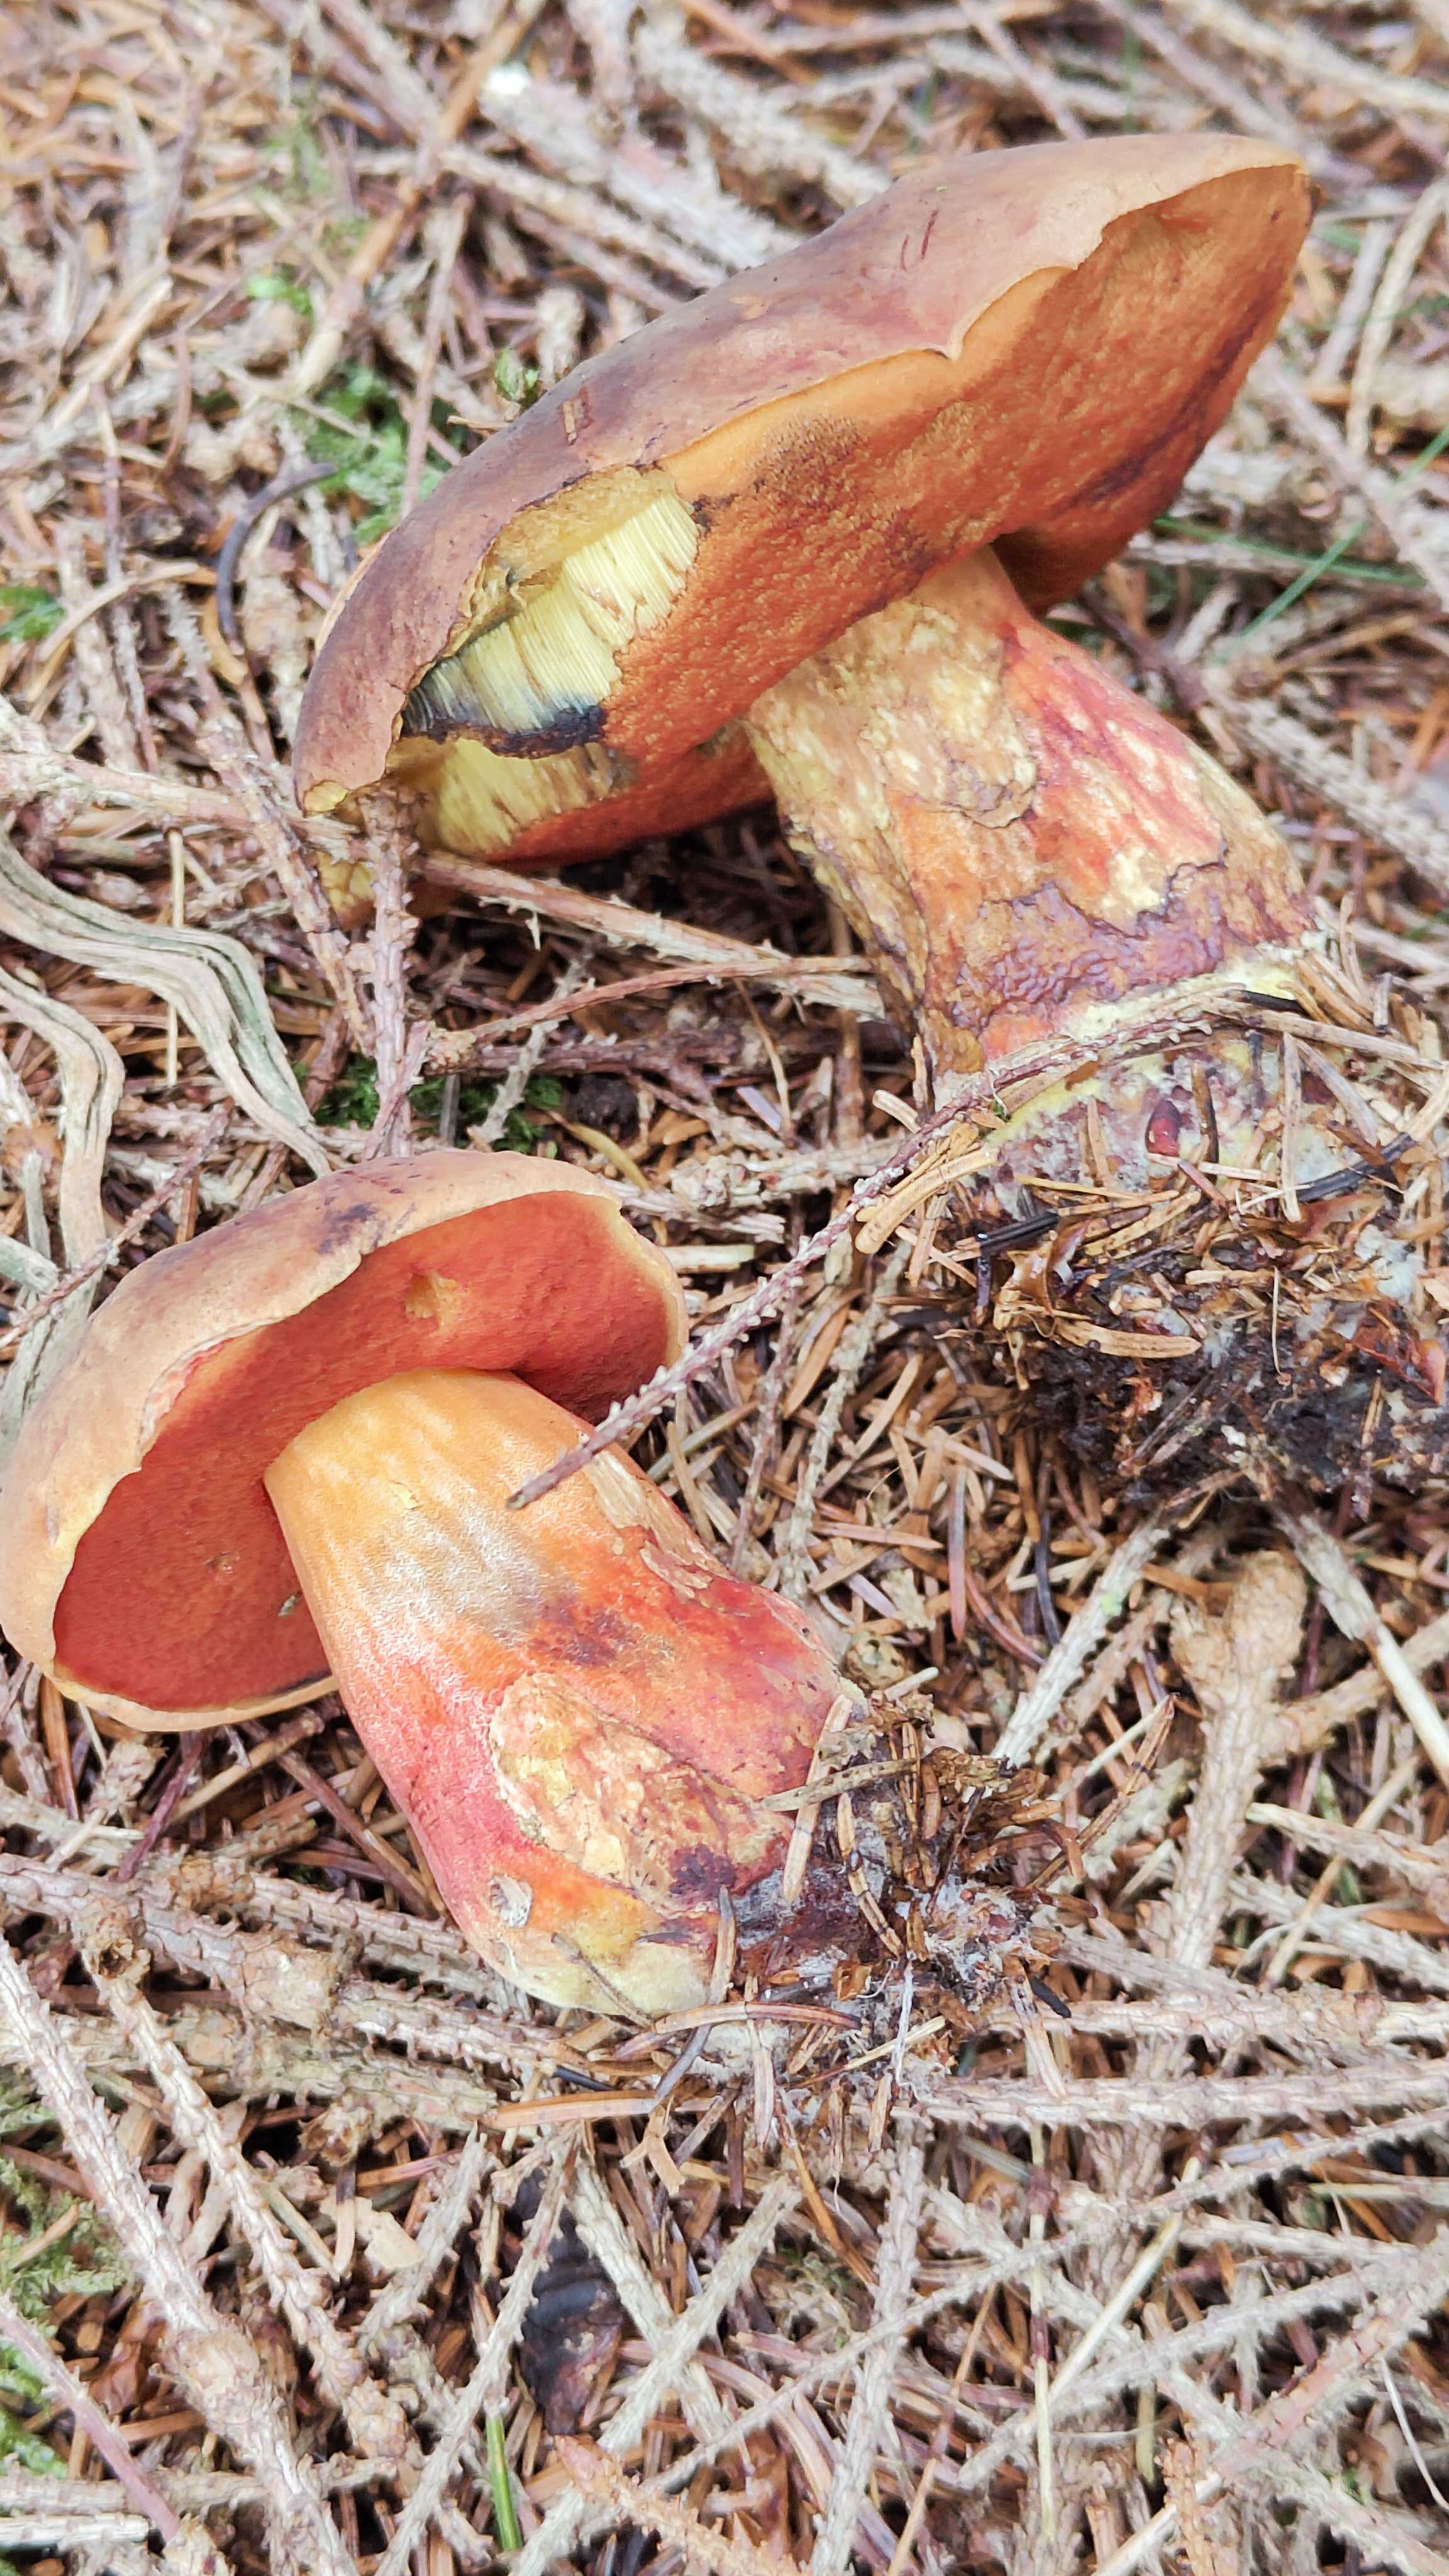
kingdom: Fungi
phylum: Basidiomycota
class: Agaricomycetes
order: Boletales
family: Boletaceae
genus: Neoboletus
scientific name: Neoboletus erythropus
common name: punktstokket indigorørhat
